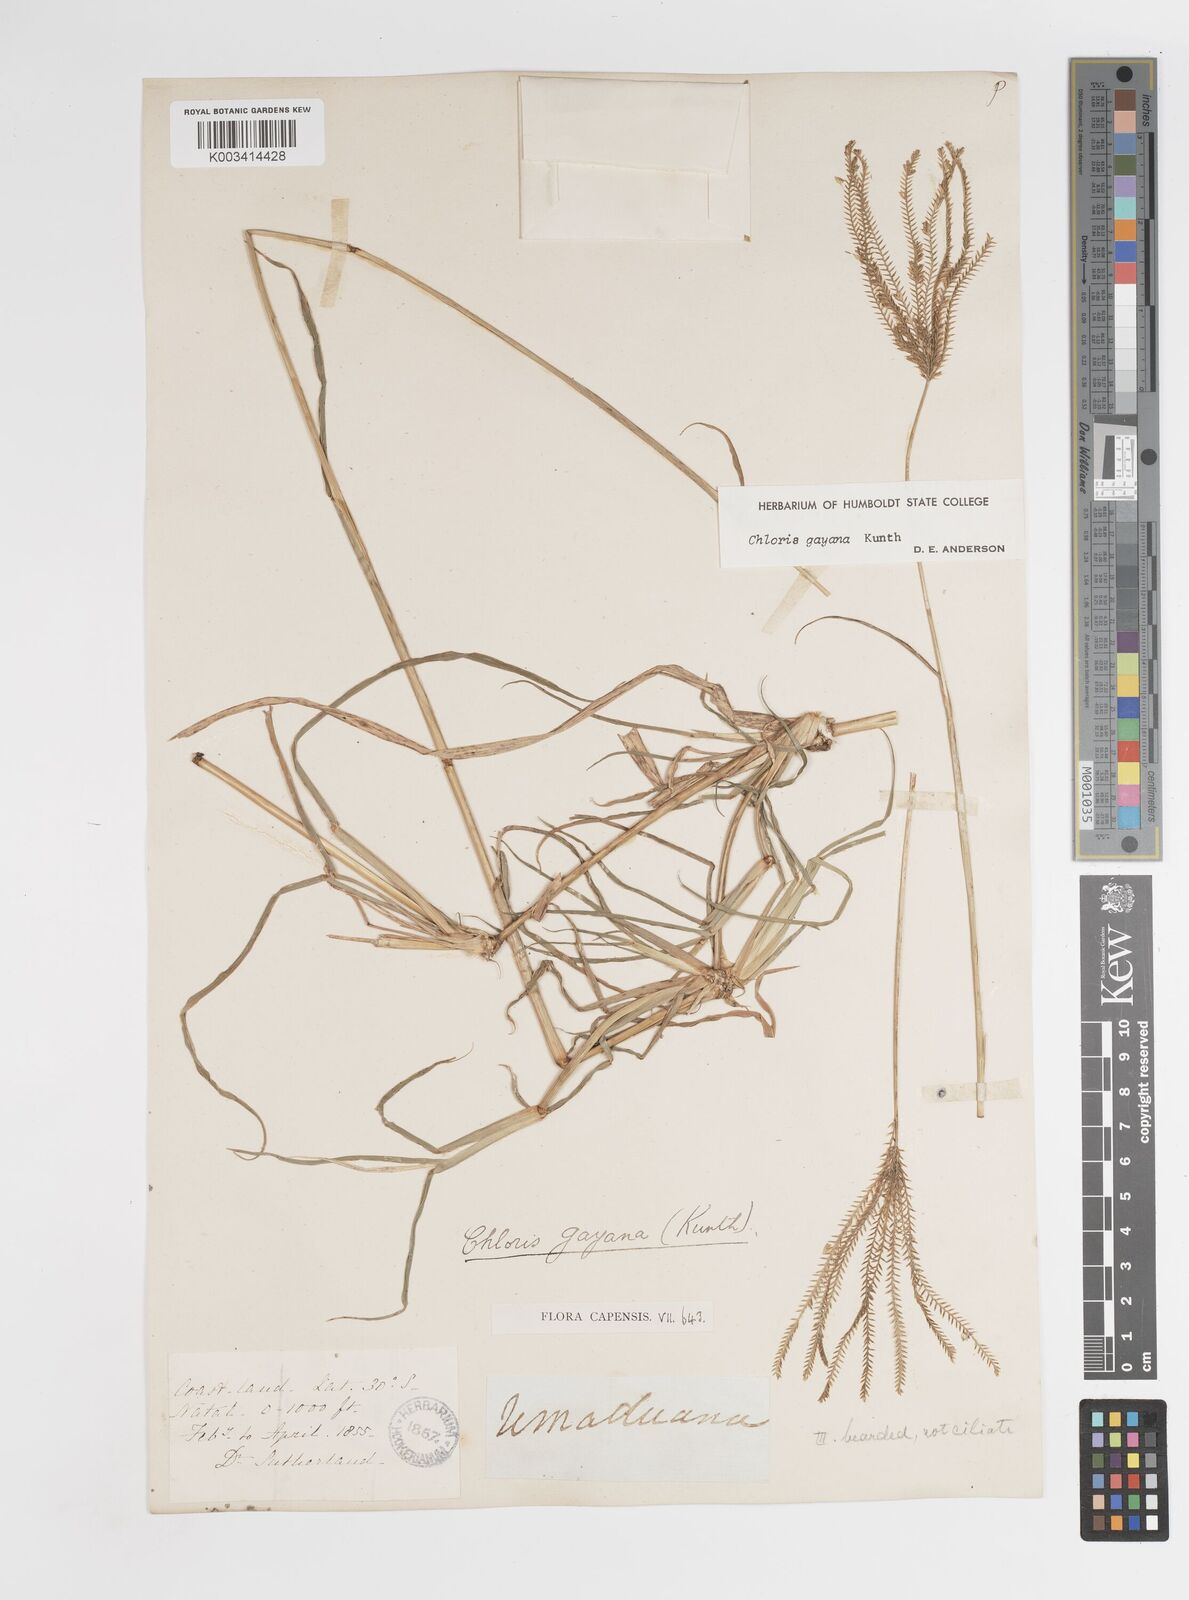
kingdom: Plantae
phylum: Tracheophyta
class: Liliopsida
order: Poales
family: Poaceae
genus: Chloris
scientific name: Chloris gayana
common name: Rhodes grass
